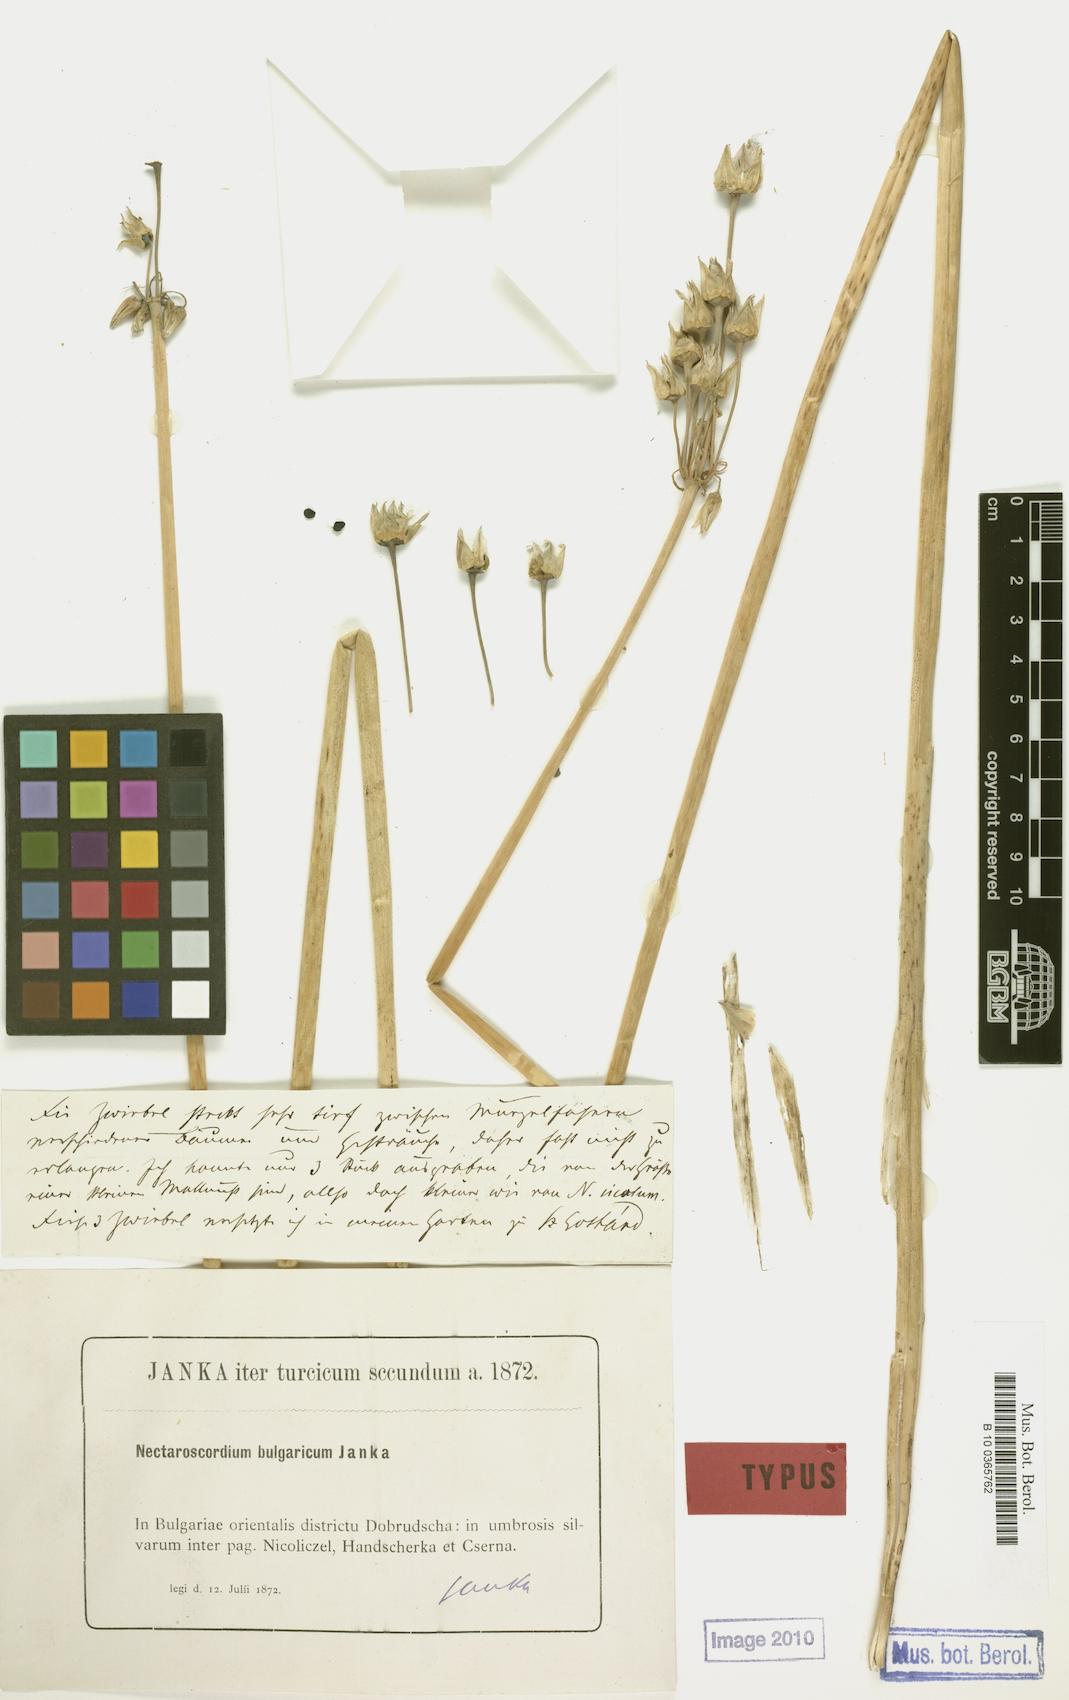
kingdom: Plantae
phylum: Tracheophyta
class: Liliopsida
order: Asparagales
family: Amaryllidaceae
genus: Allium
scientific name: Allium siculum
